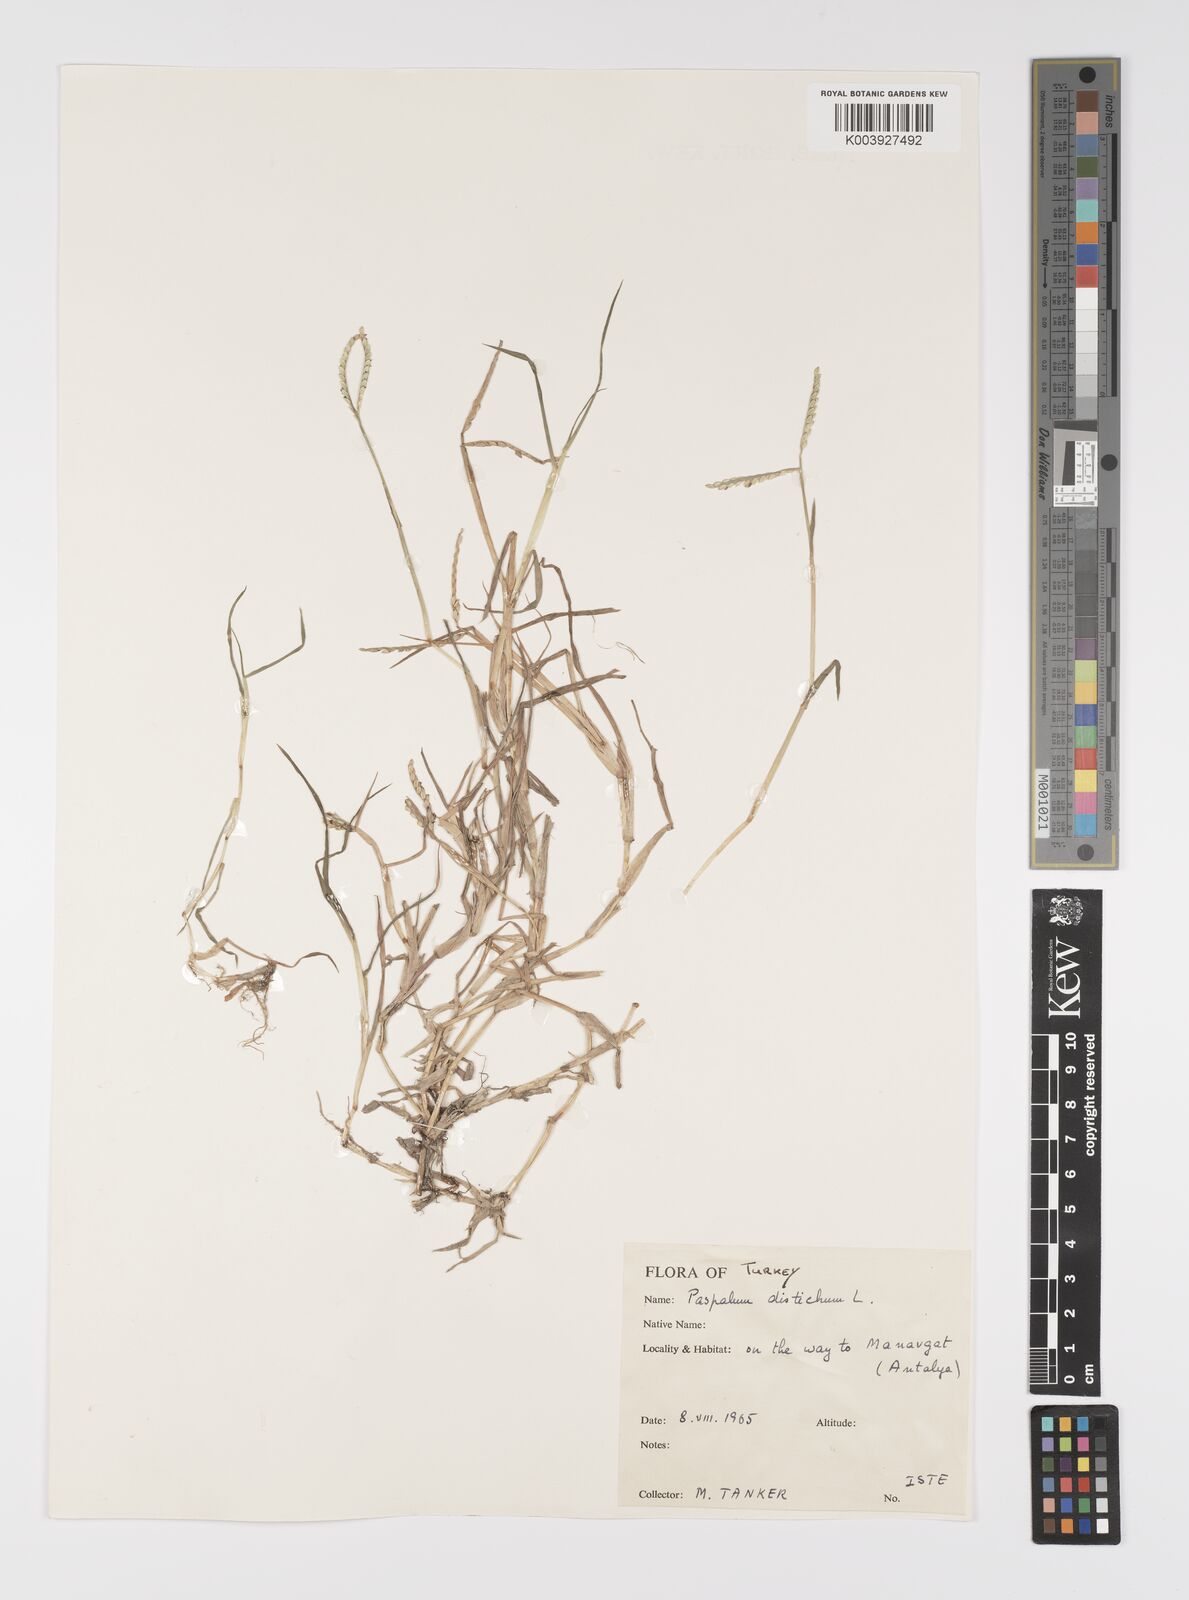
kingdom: Plantae
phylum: Tracheophyta
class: Liliopsida
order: Poales
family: Poaceae
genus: Paspalum
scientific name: Paspalum distichum
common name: Knotgrass
